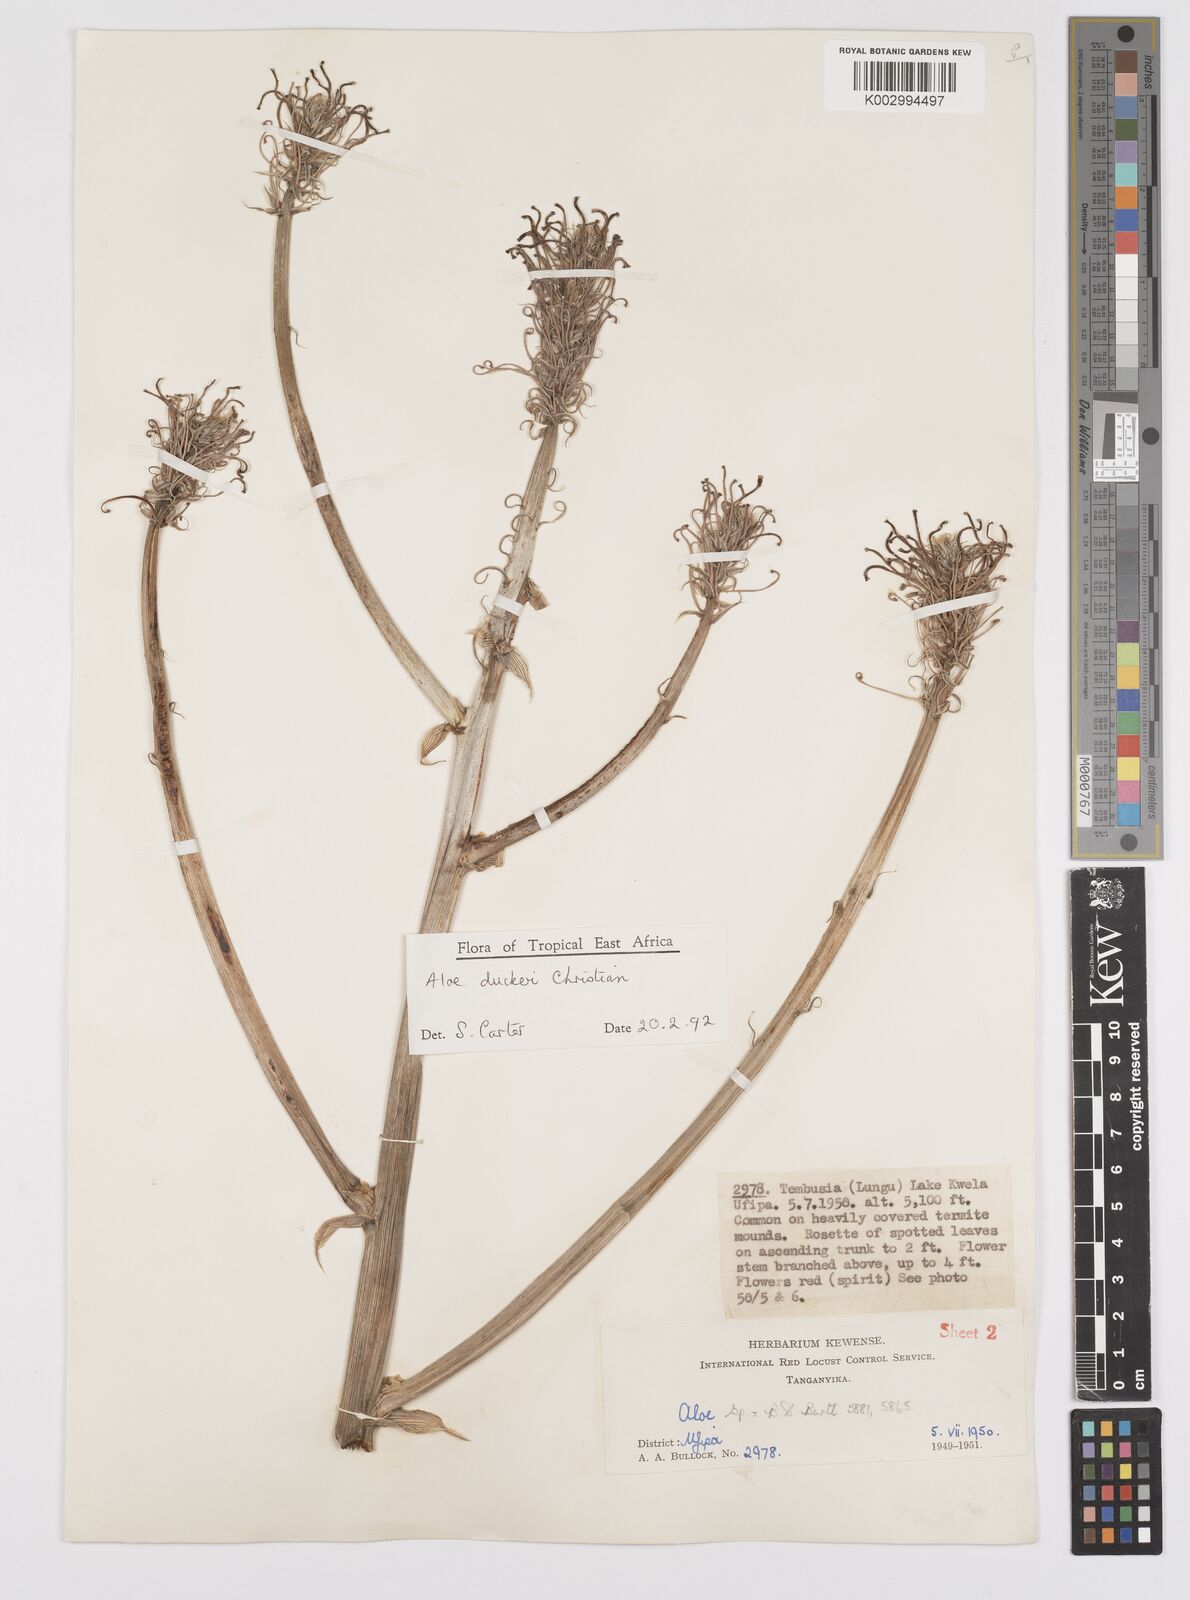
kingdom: Plantae
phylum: Tracheophyta
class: Liliopsida
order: Asparagales
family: Asphodelaceae
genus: Aloe
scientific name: Aloe duckeri
